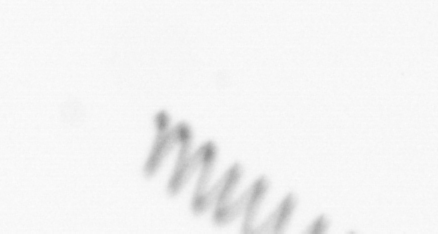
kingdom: Chromista
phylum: Ochrophyta
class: Bacillariophyceae
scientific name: Bacillariophyceae
